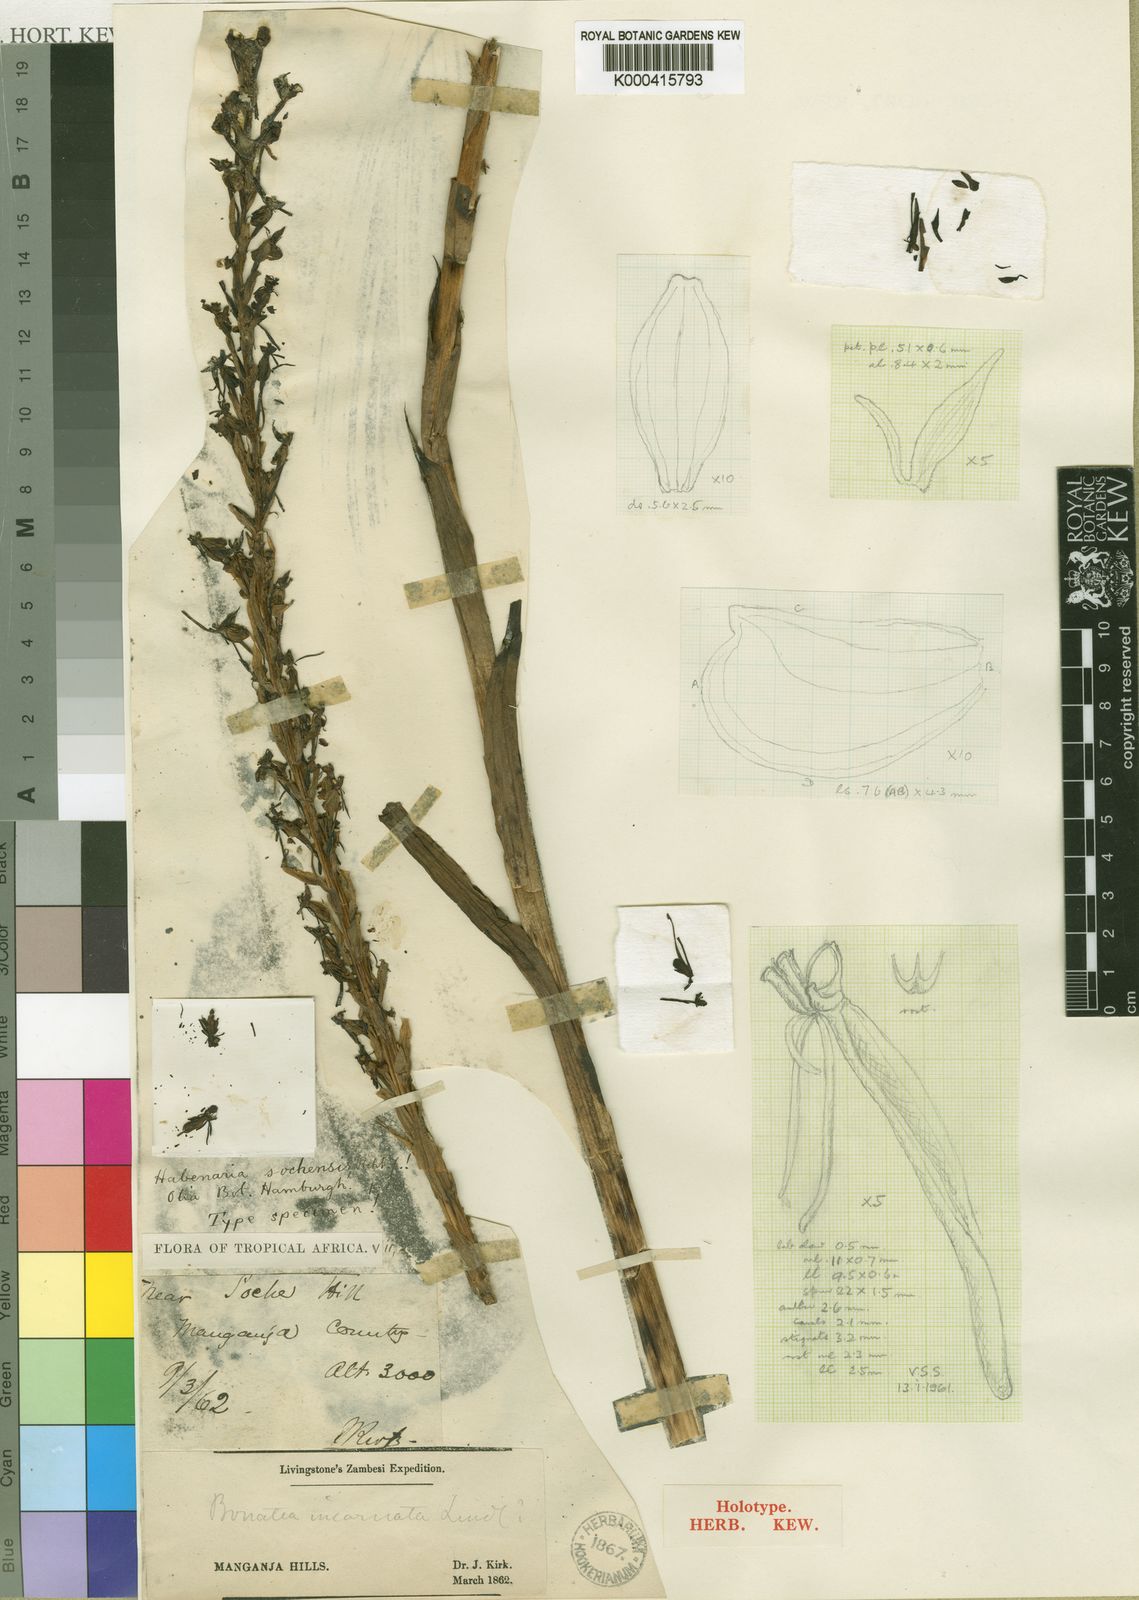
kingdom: Plantae
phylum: Tracheophyta
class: Liliopsida
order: Asparagales
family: Orchidaceae
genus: Habenaria
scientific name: Habenaria sochensis
